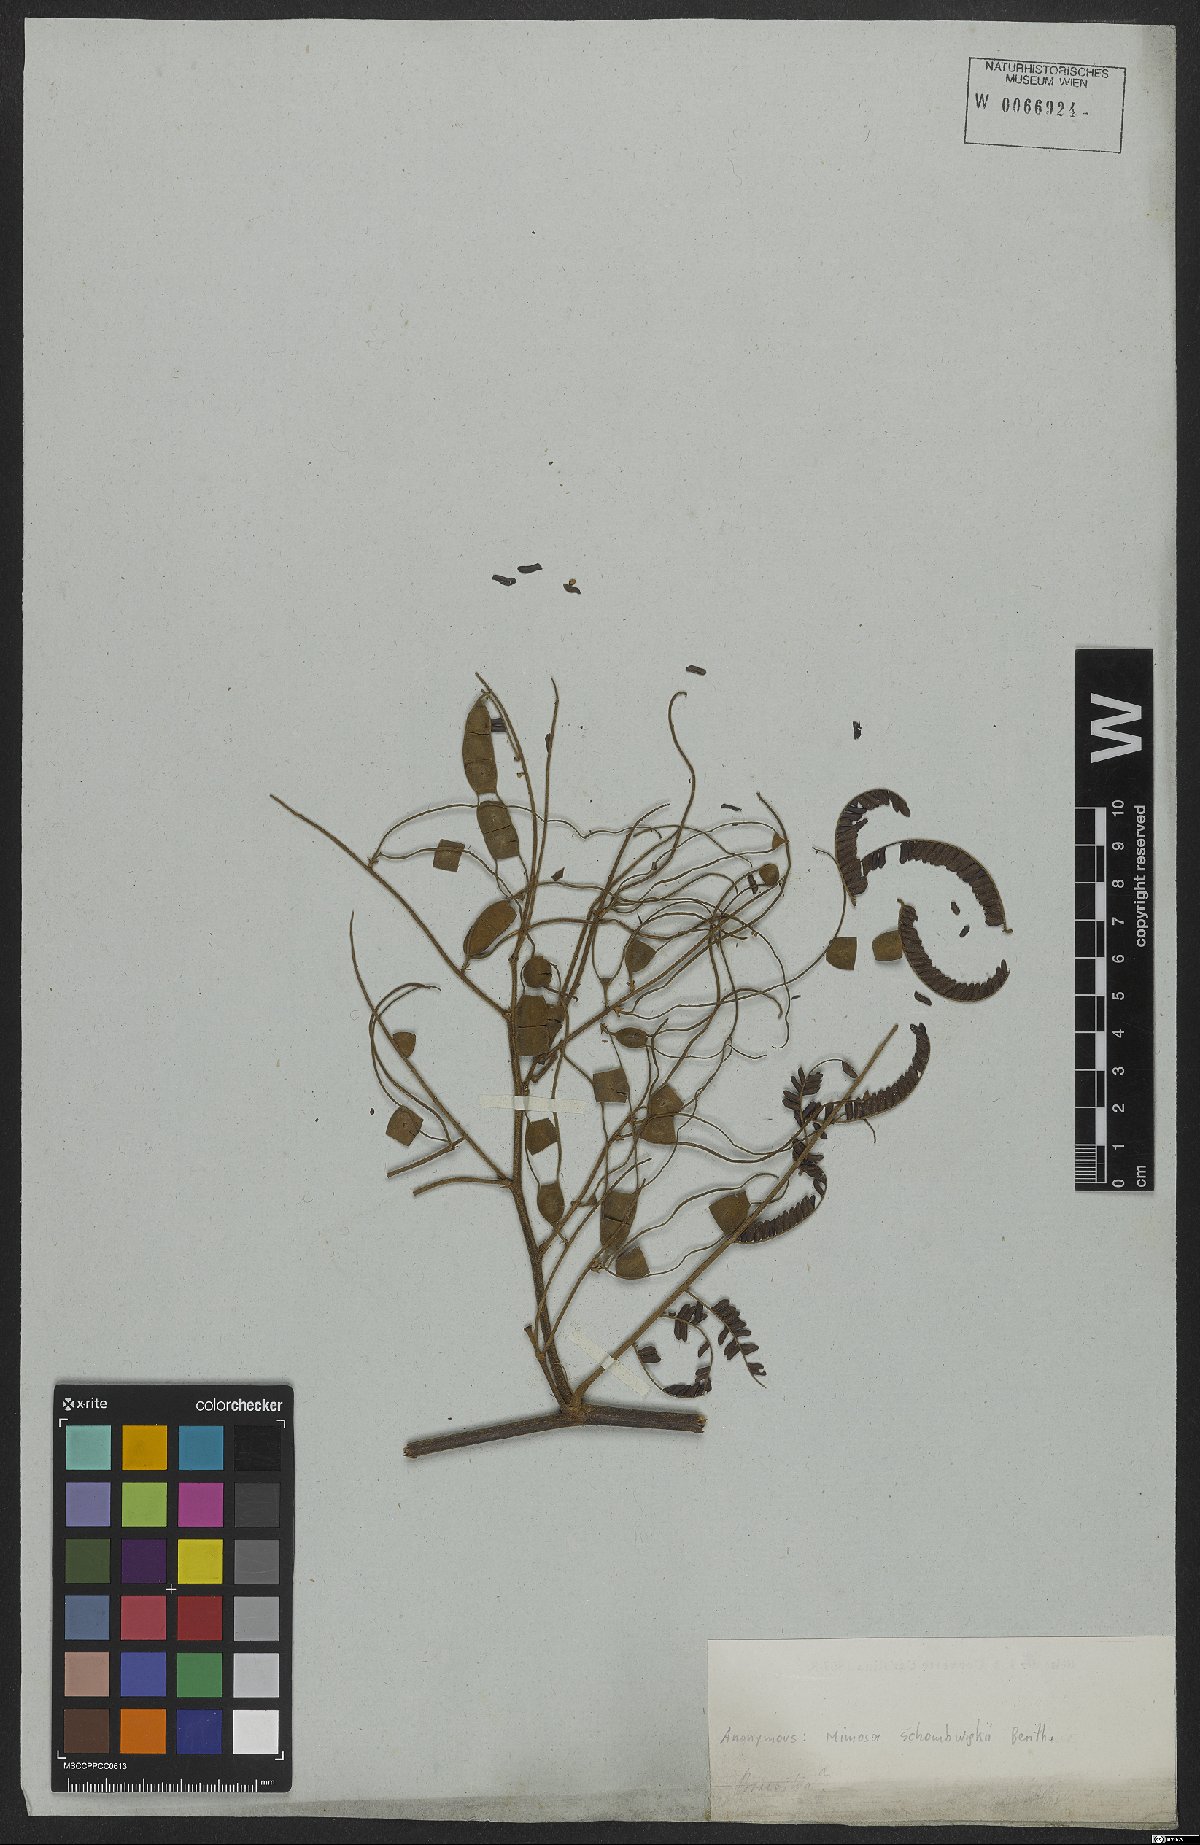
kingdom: Plantae
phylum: Tracheophyta
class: Magnoliopsida
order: Fabales
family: Fabaceae
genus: Mimosa
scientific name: Mimosa schomburgkii
